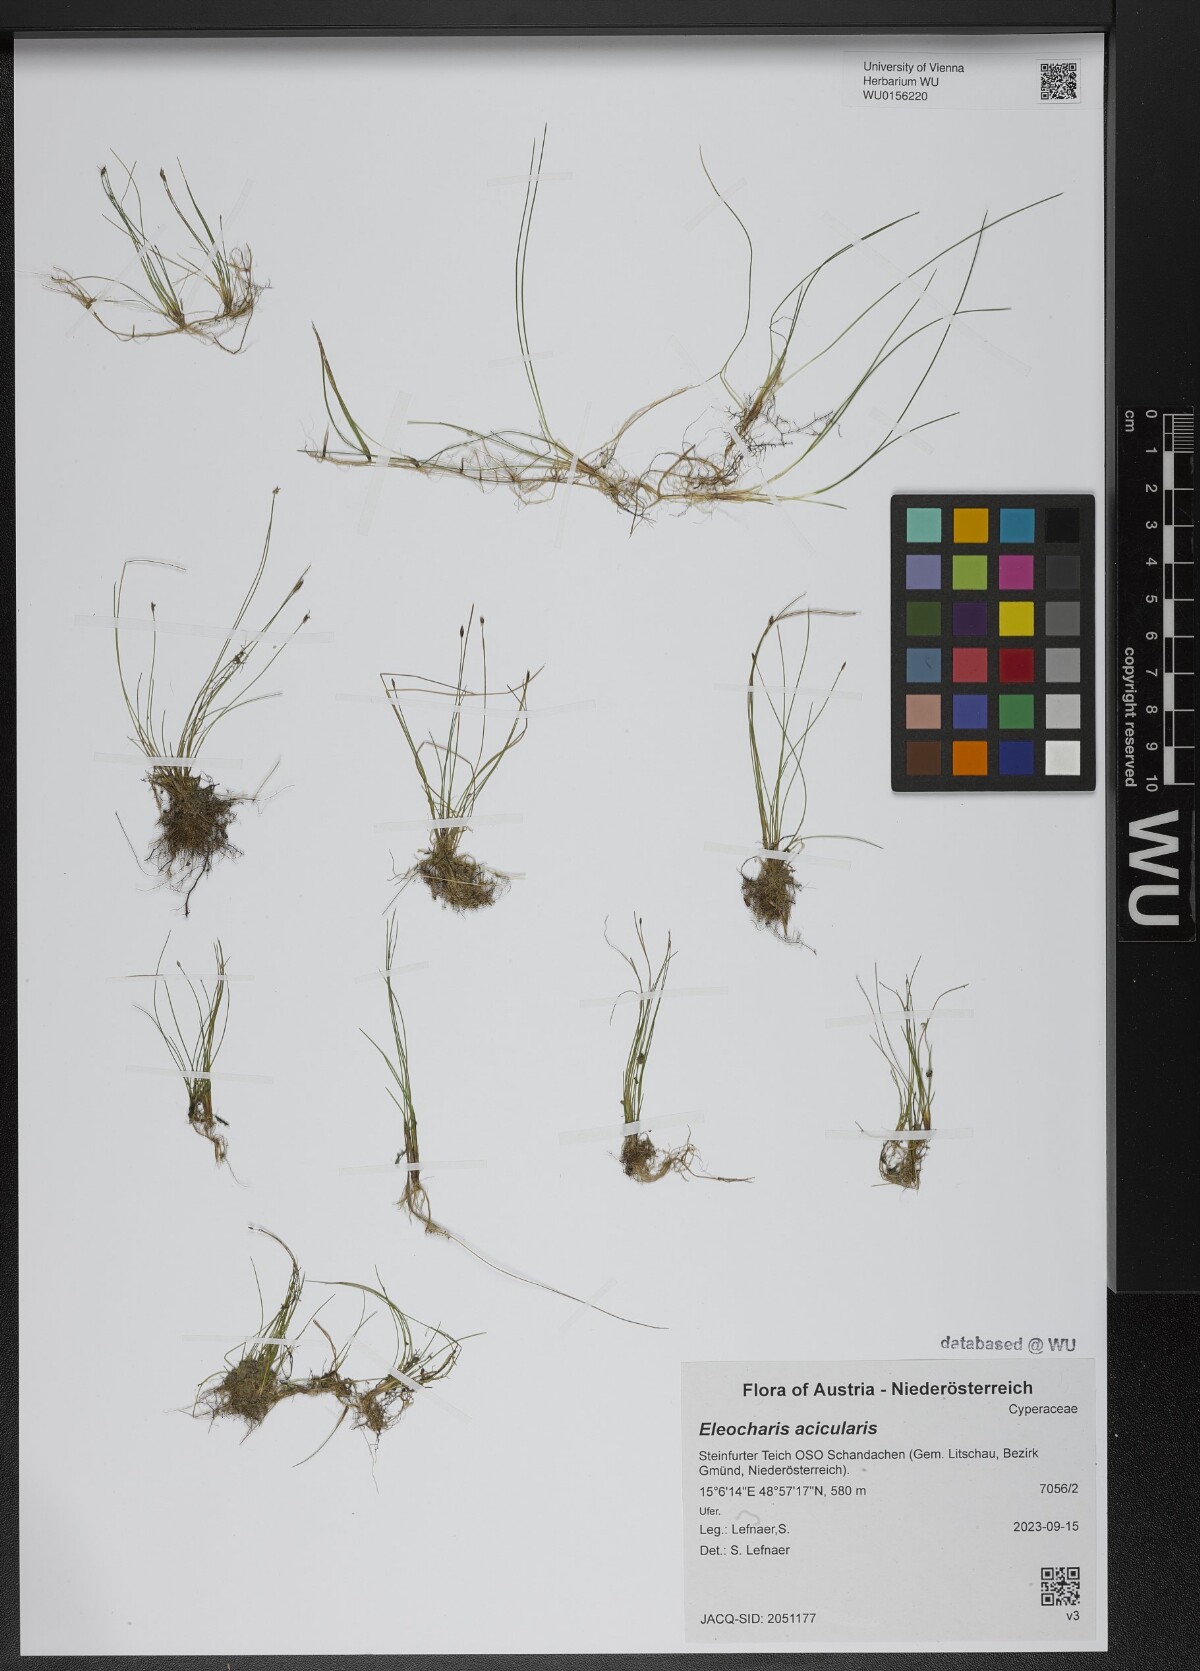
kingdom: Plantae
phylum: Tracheophyta
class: Liliopsida
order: Poales
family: Cyperaceae
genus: Eleocharis
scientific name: Eleocharis acicularis
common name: Needle spike-rush
